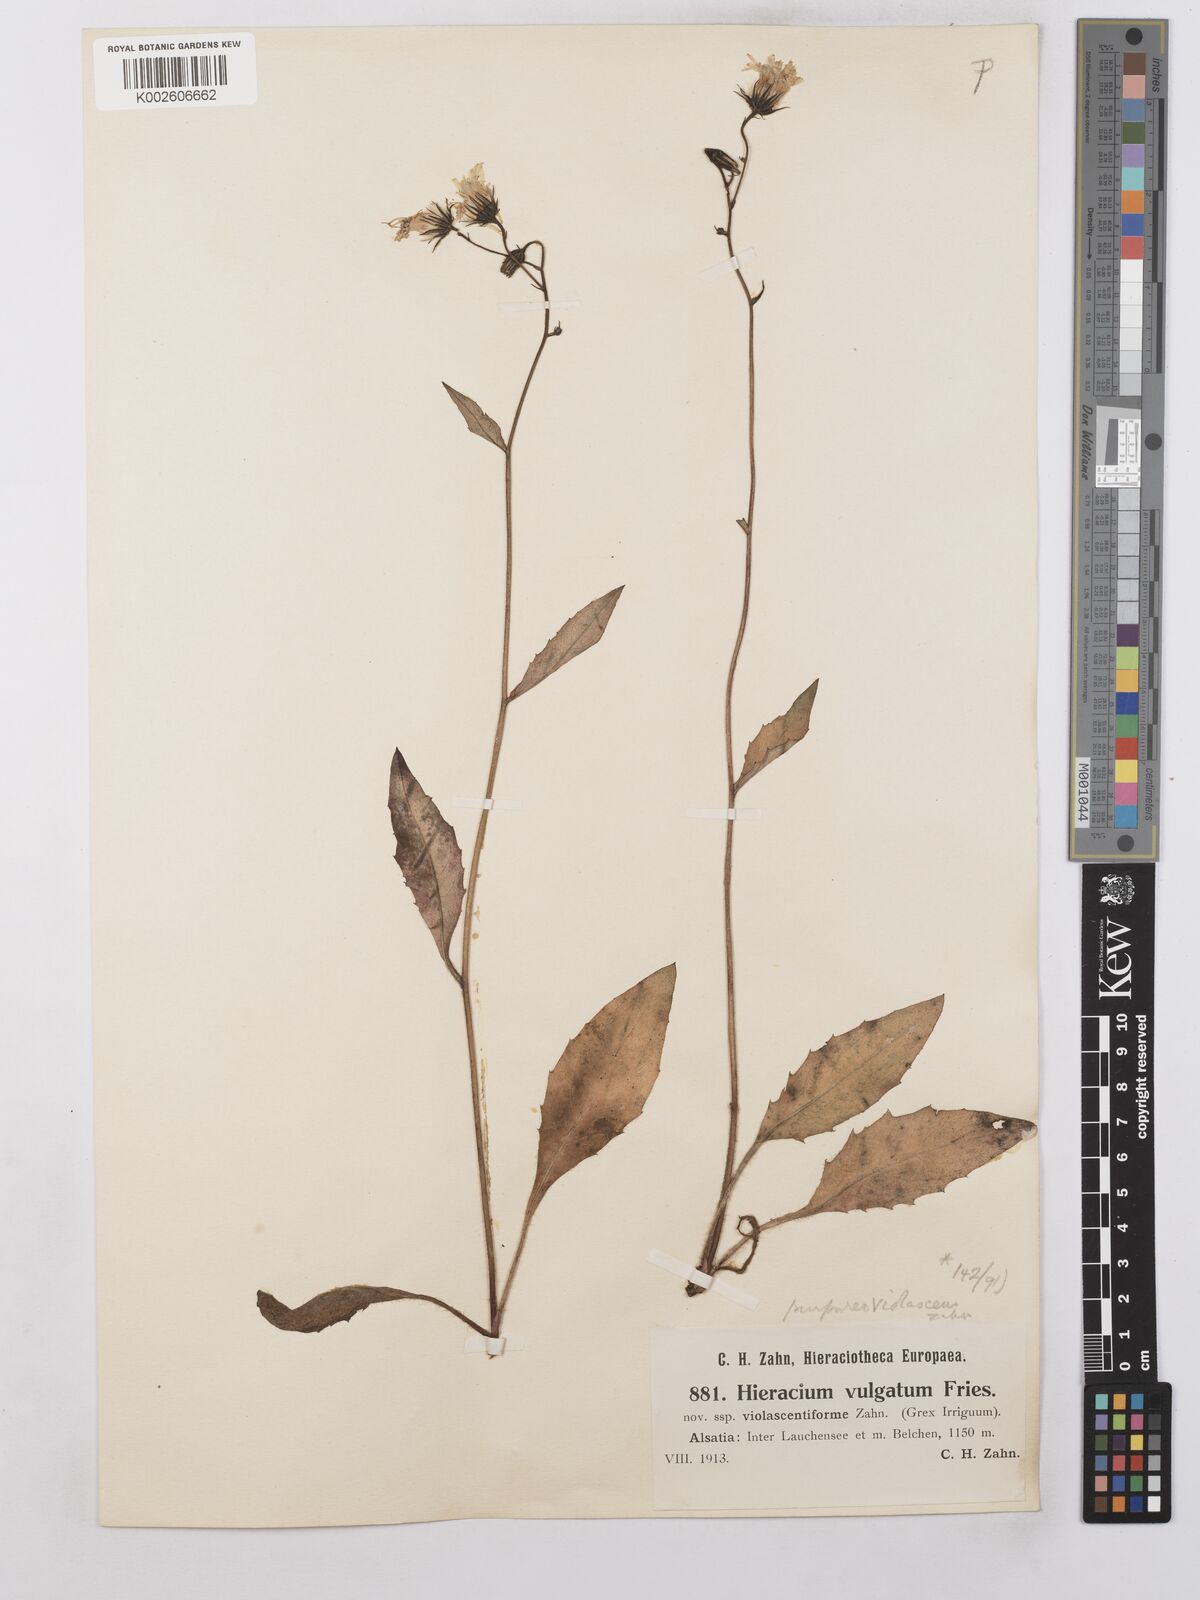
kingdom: Plantae
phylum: Tracheophyta
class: Magnoliopsida
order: Asterales
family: Asteraceae
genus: Hieracium
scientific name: Hieracium lachenalii
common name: Common hawkweed
